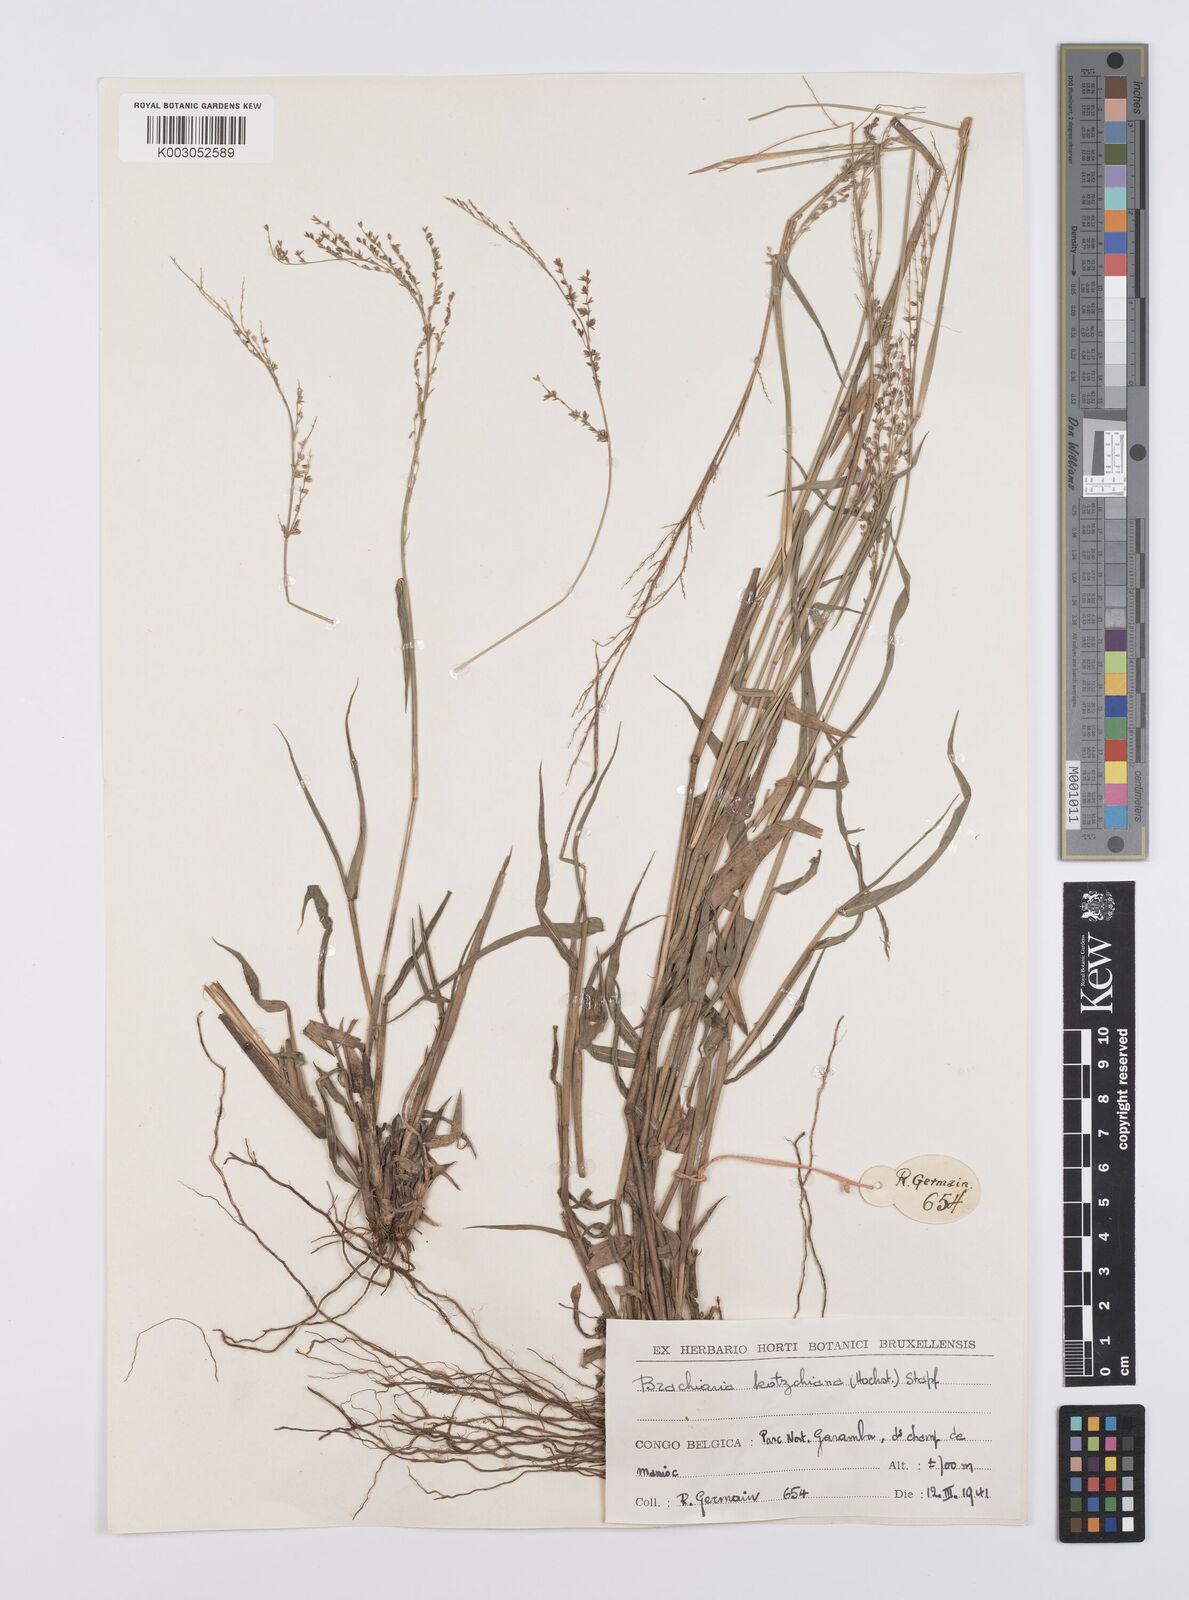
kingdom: Plantae
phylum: Tracheophyta
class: Liliopsida
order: Poales
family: Poaceae
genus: Urochloa
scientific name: Urochloa comata
